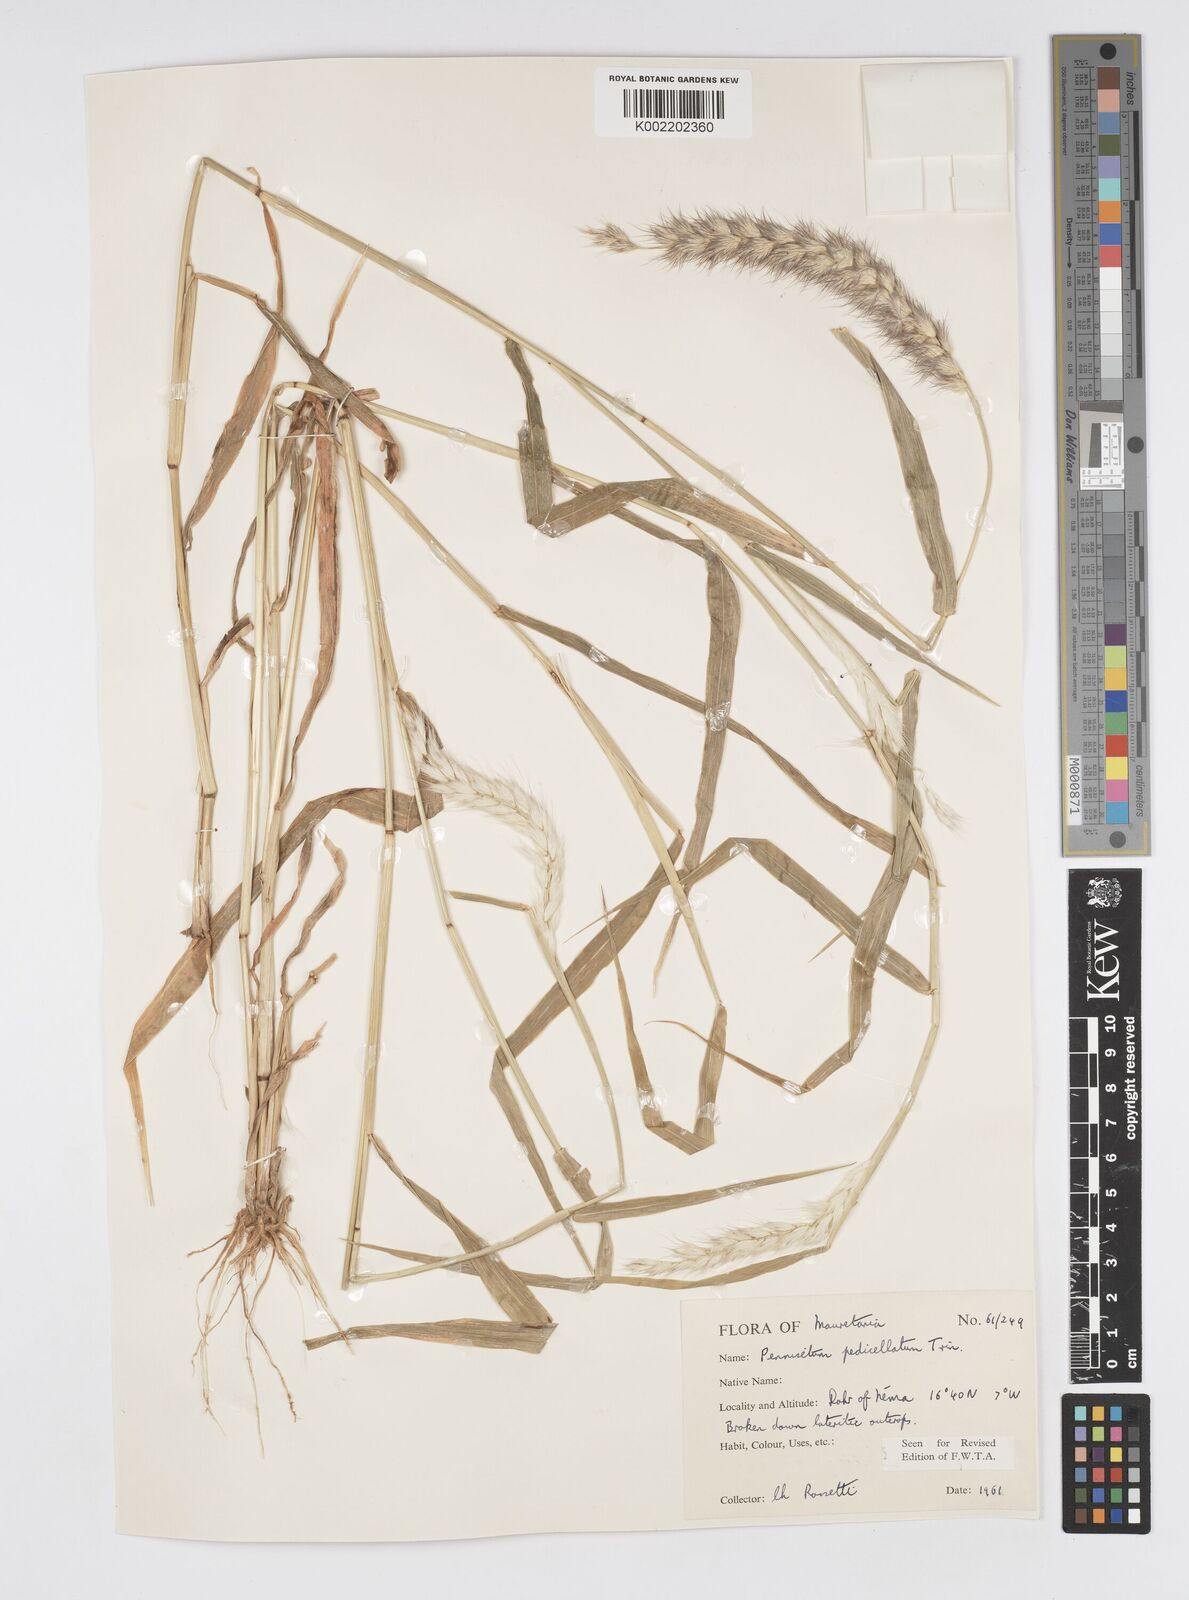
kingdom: Plantae
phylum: Tracheophyta
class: Liliopsida
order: Poales
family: Poaceae
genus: Cenchrus
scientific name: Cenchrus pedicellatus
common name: Hairy fountain grass
